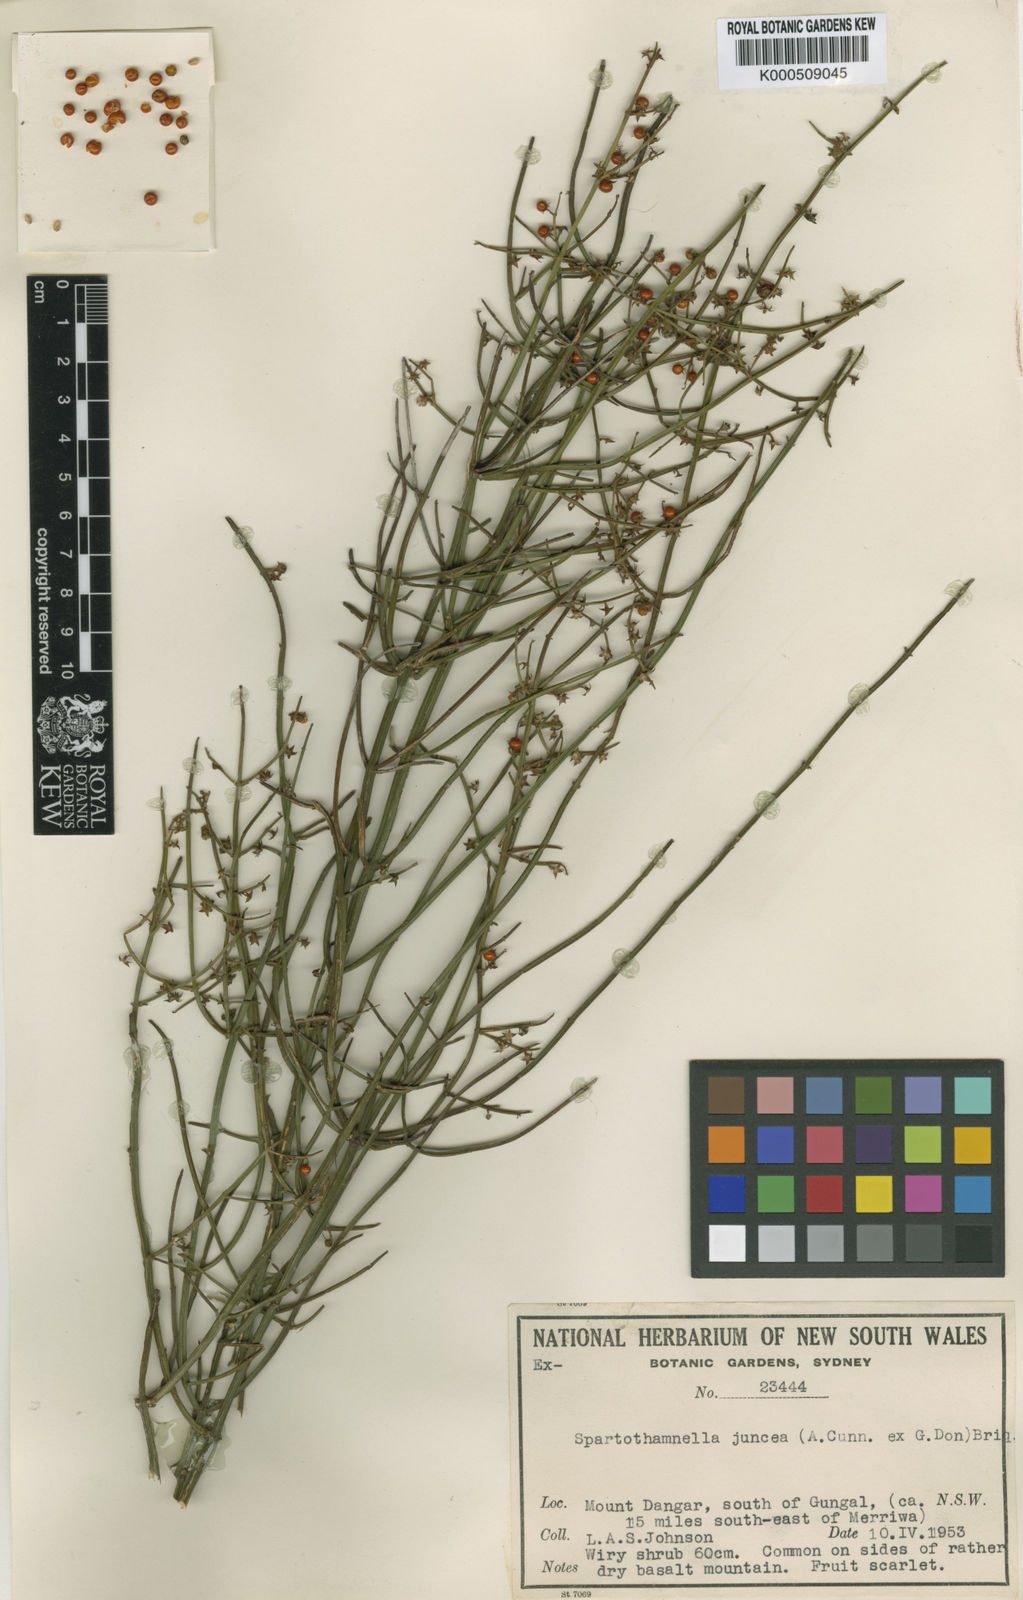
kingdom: Plantae
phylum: Tracheophyta
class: Magnoliopsida
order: Lamiales
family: Lamiaceae
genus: Teucrium
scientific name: Teucrium junceum
